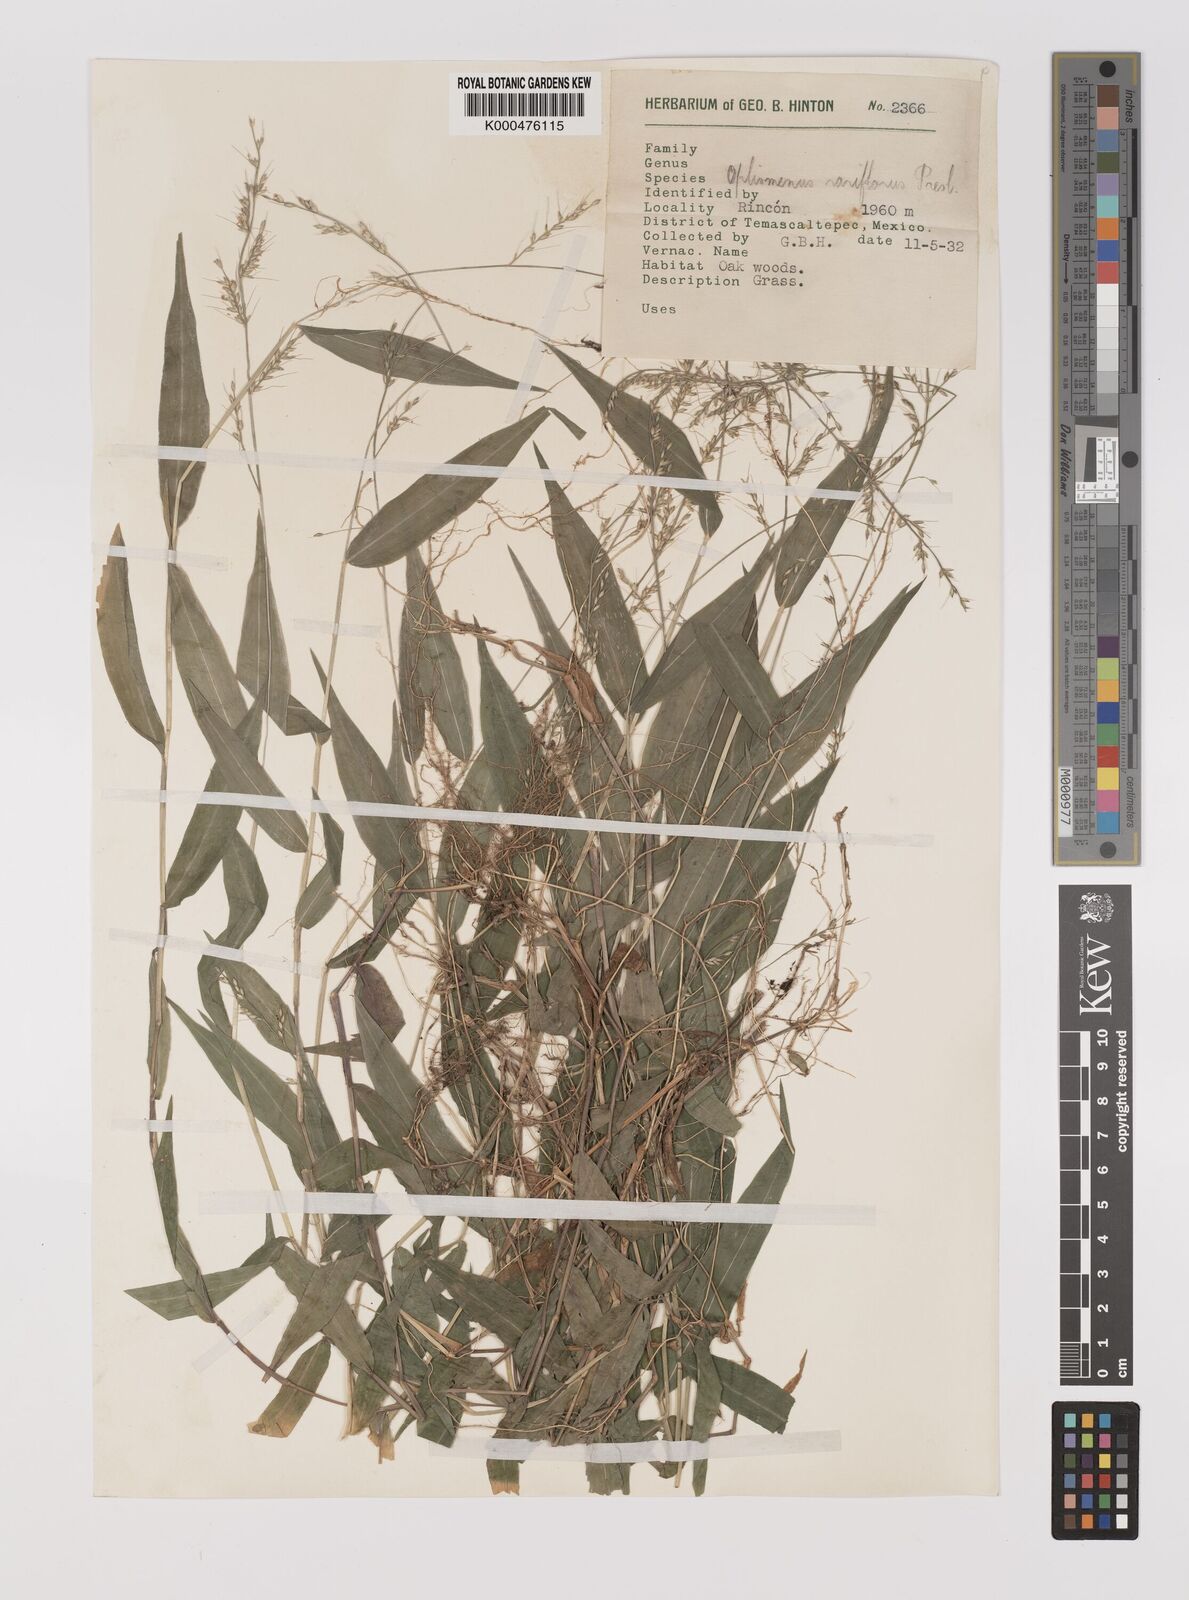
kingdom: Plantae
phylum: Tracheophyta
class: Liliopsida
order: Poales
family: Poaceae
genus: Oplismenus
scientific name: Oplismenus compositus
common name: Running mountain grass
